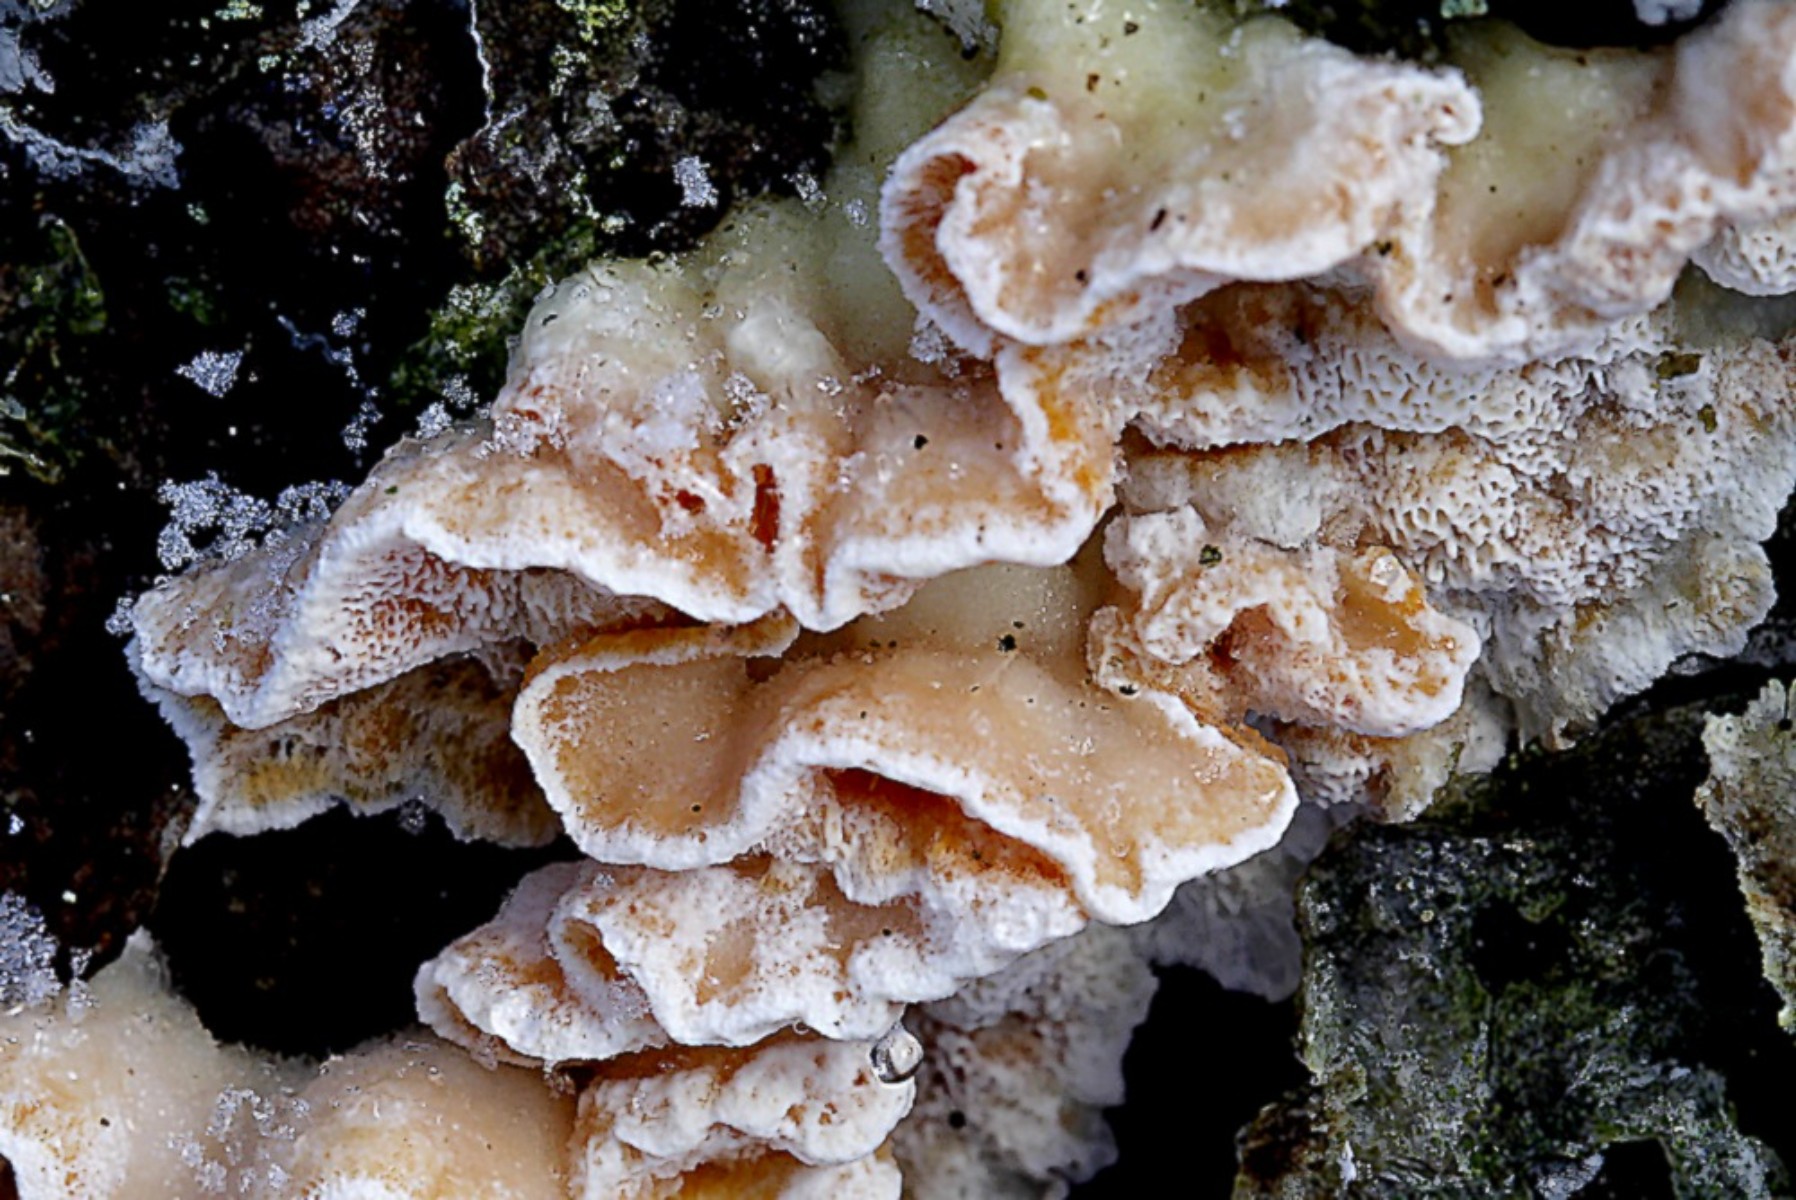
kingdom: Fungi
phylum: Basidiomycota
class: Agaricomycetes
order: Polyporales
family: Incrustoporiaceae
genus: Skeletocutis
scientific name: Skeletocutis amorpha
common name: orange krystalporesvamp
